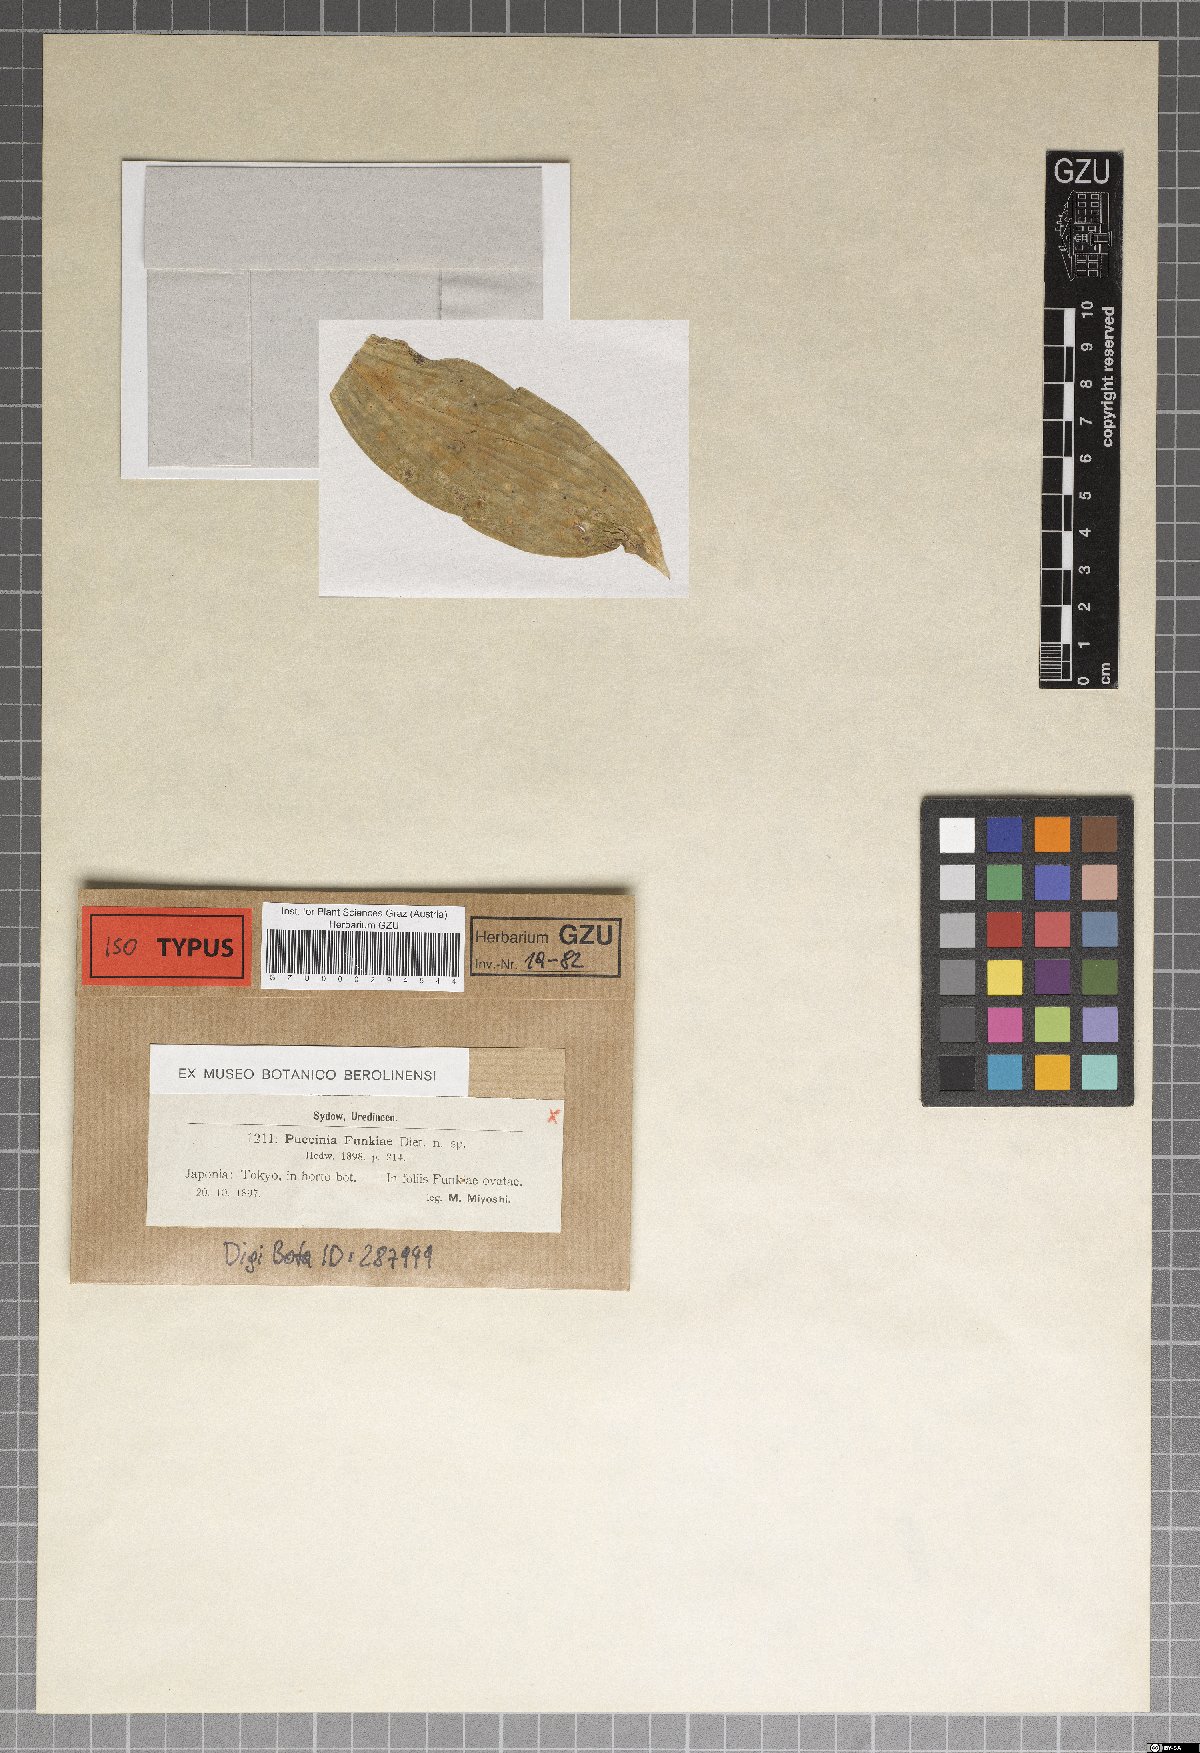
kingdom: Fungi
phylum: Basidiomycota
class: Pucciniomycetes
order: Pucciniales
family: Pucciniaceae
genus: Puccinia
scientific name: Puccinia hemerocallidis
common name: Rust fungus
